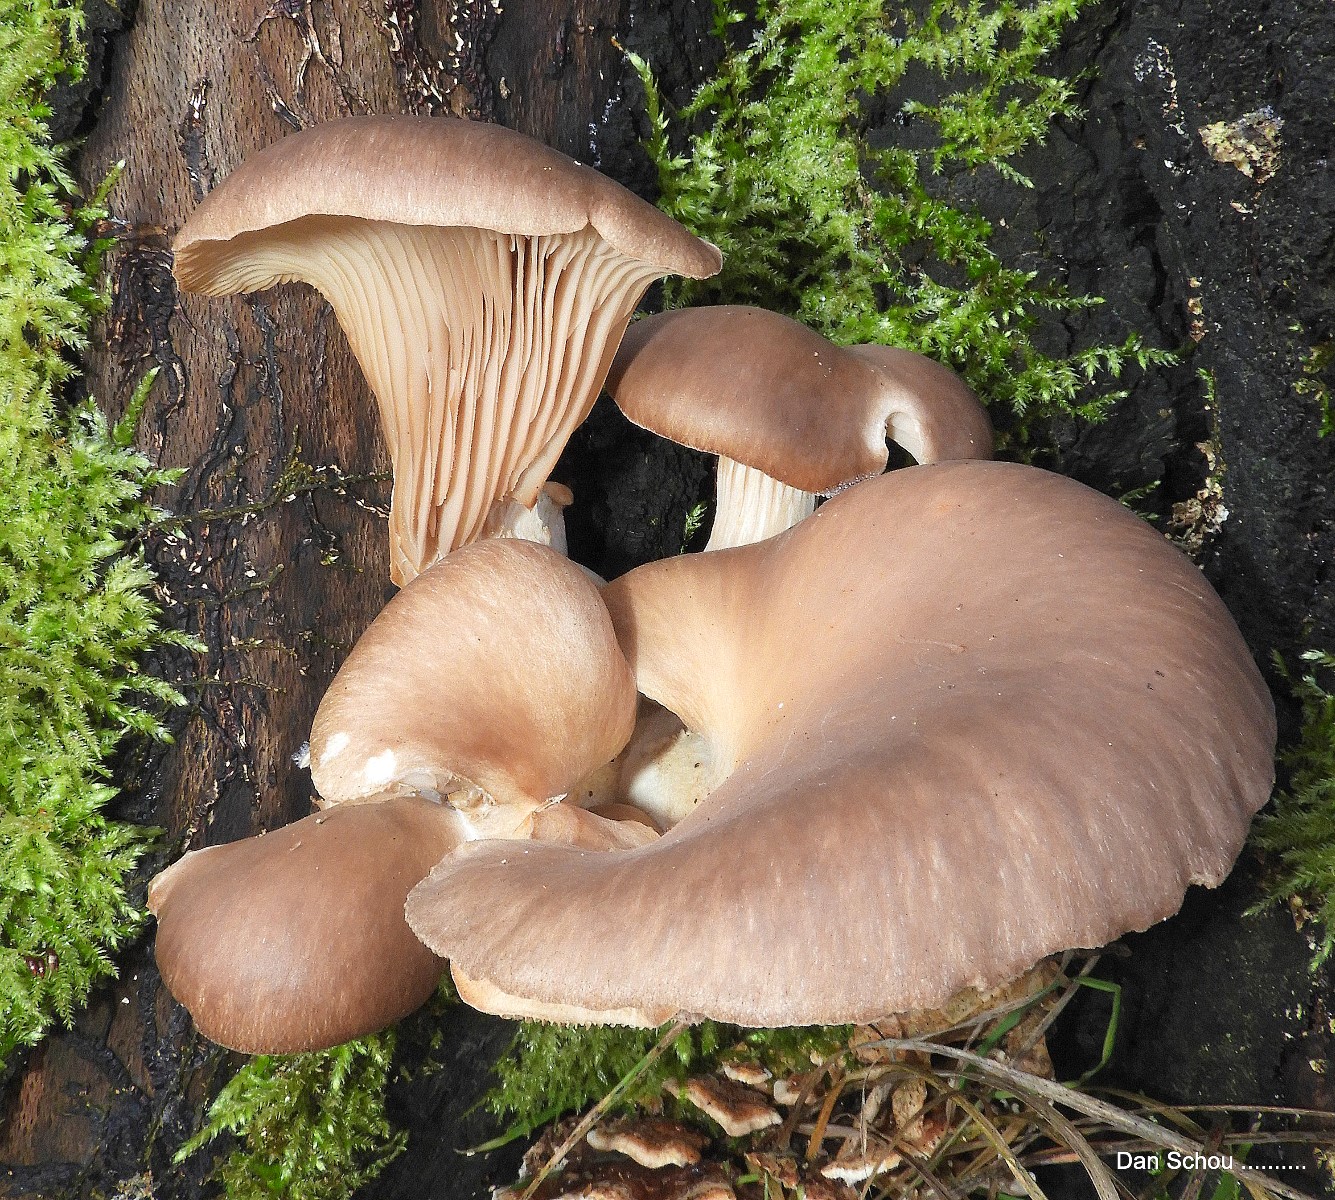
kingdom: Fungi
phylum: Basidiomycota
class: Agaricomycetes
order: Agaricales
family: Pleurotaceae
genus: Pleurotus
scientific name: Pleurotus ostreatus
